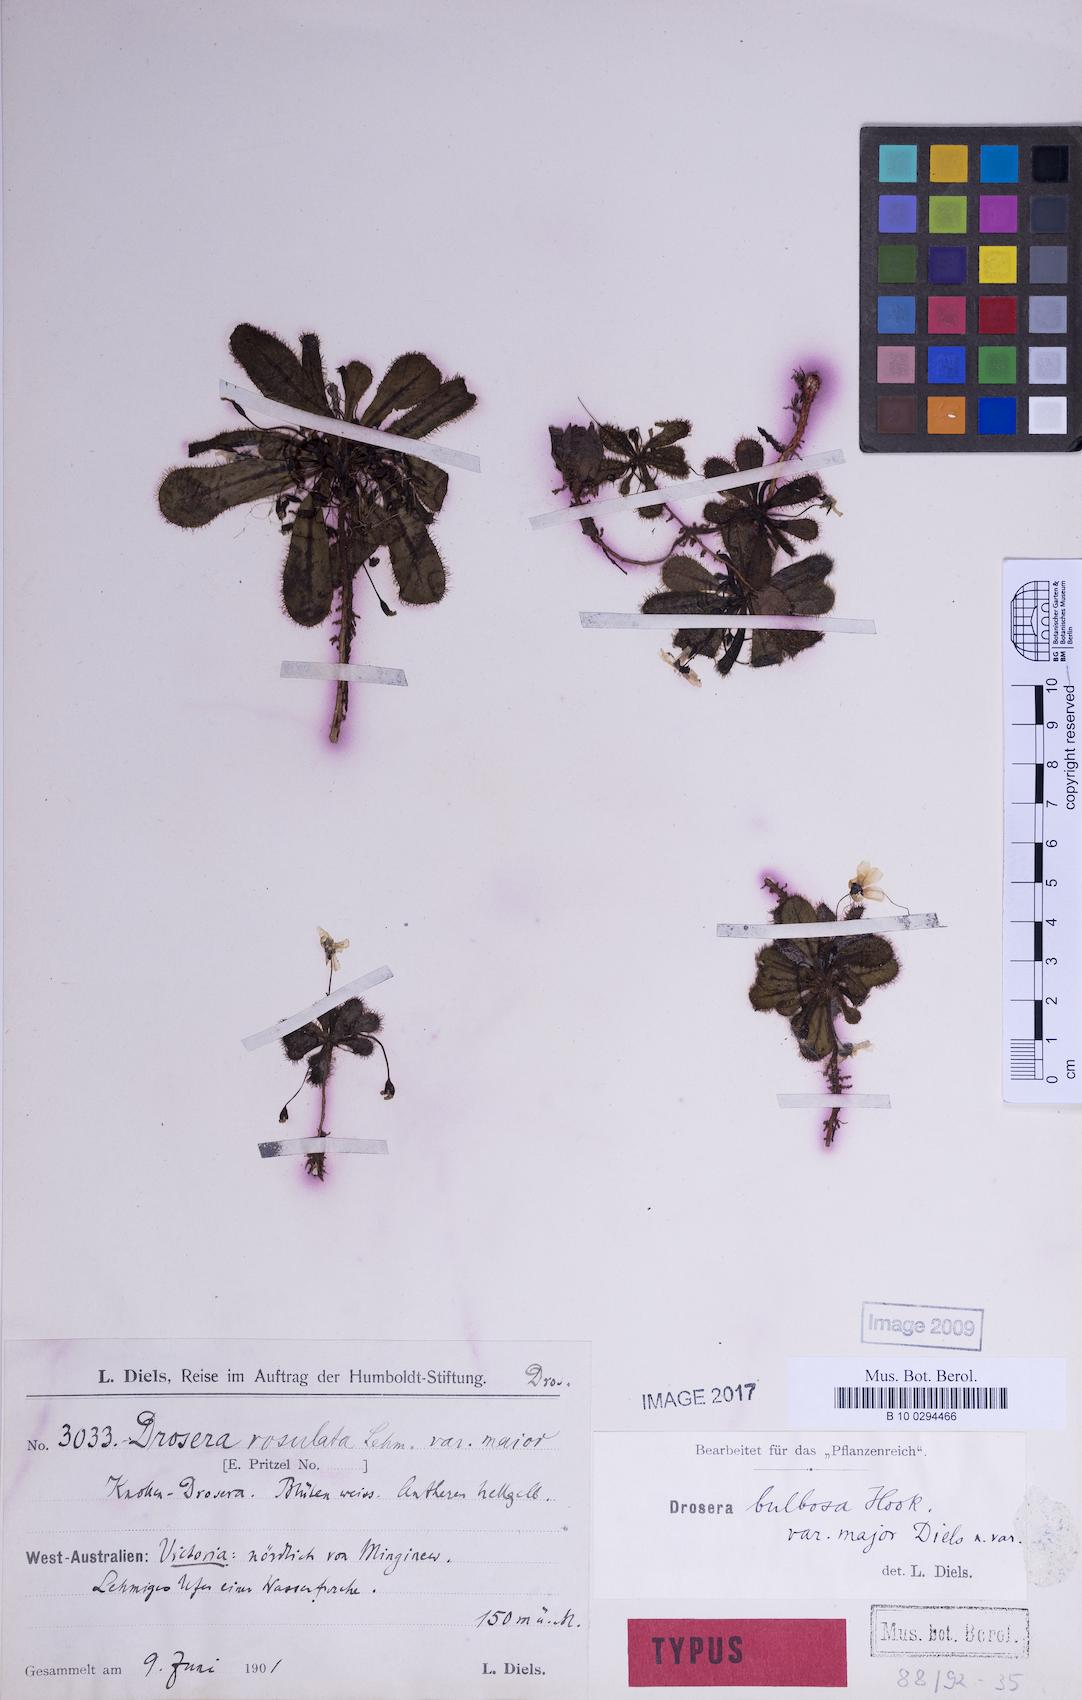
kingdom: Plantae
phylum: Tracheophyta
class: Magnoliopsida
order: Caryophyllales
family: Droseraceae
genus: Drosera
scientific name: Drosera bulbosa
